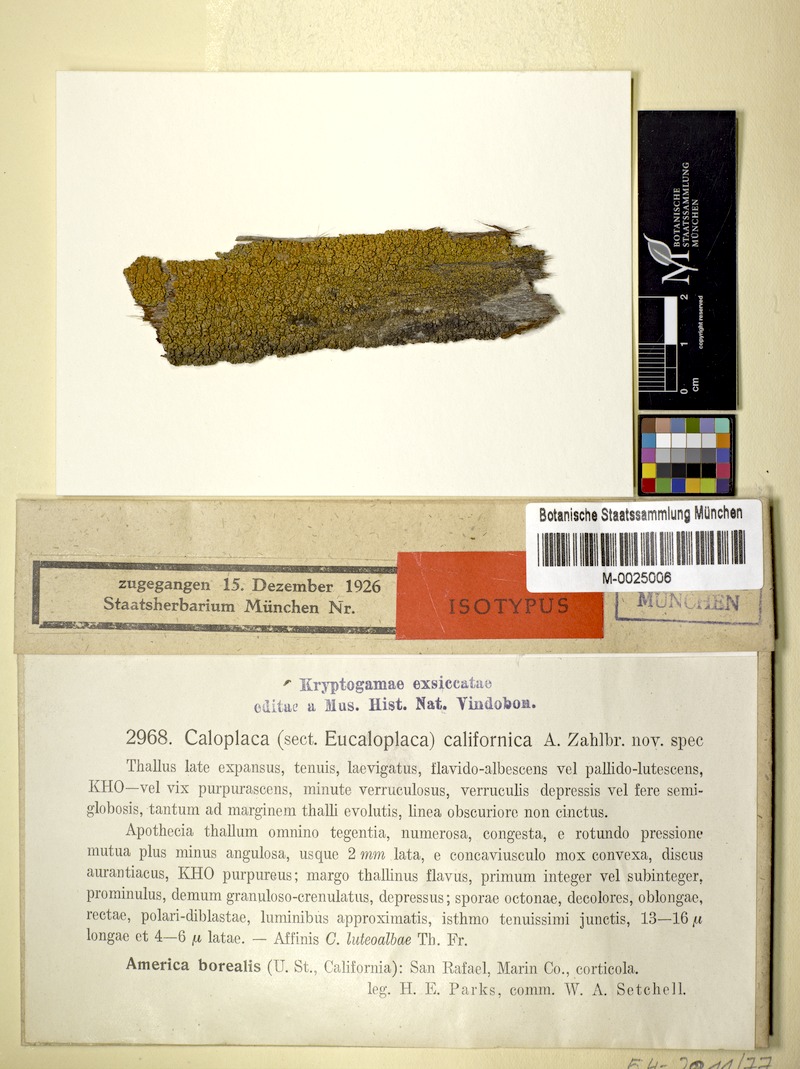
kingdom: Fungi
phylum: Ascomycota
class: Lecanoromycetes
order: Teloschistales
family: Teloschistaceae
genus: Caloplaca
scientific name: Caloplaca californica
